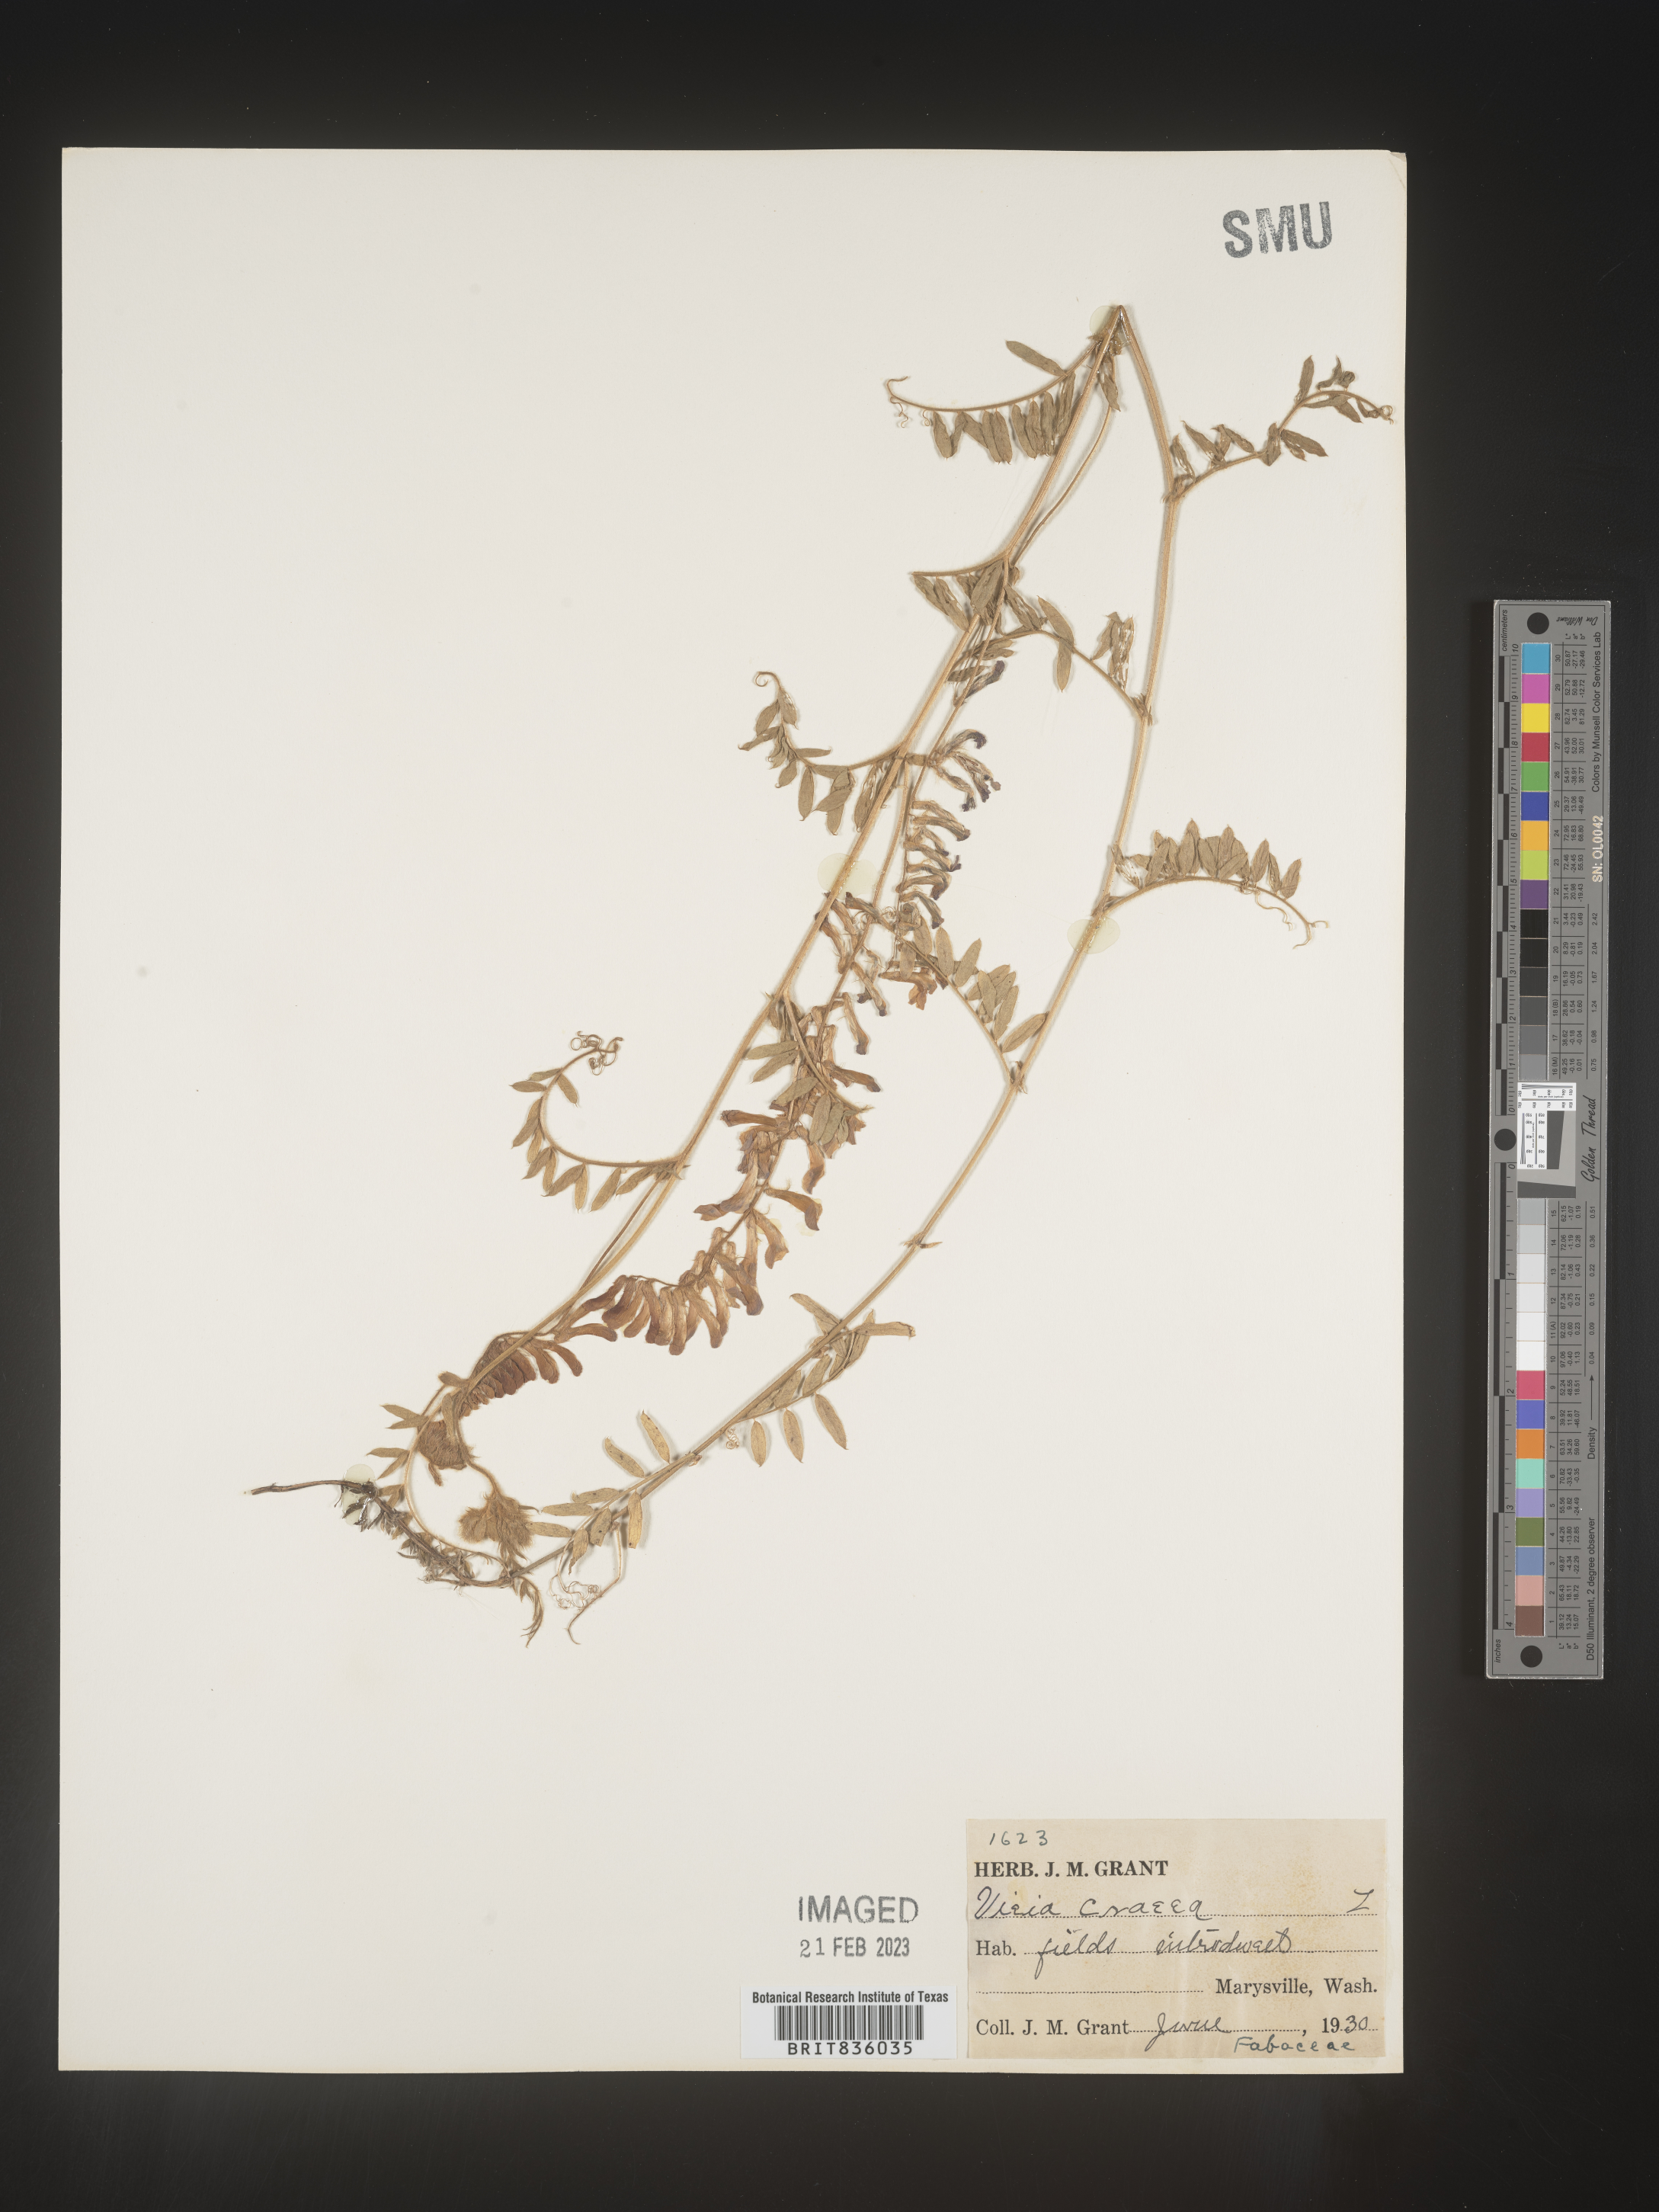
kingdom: Plantae
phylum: Tracheophyta
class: Magnoliopsida
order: Fabales
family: Fabaceae
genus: Vicia
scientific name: Vicia tetrasperma
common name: Smooth tare
